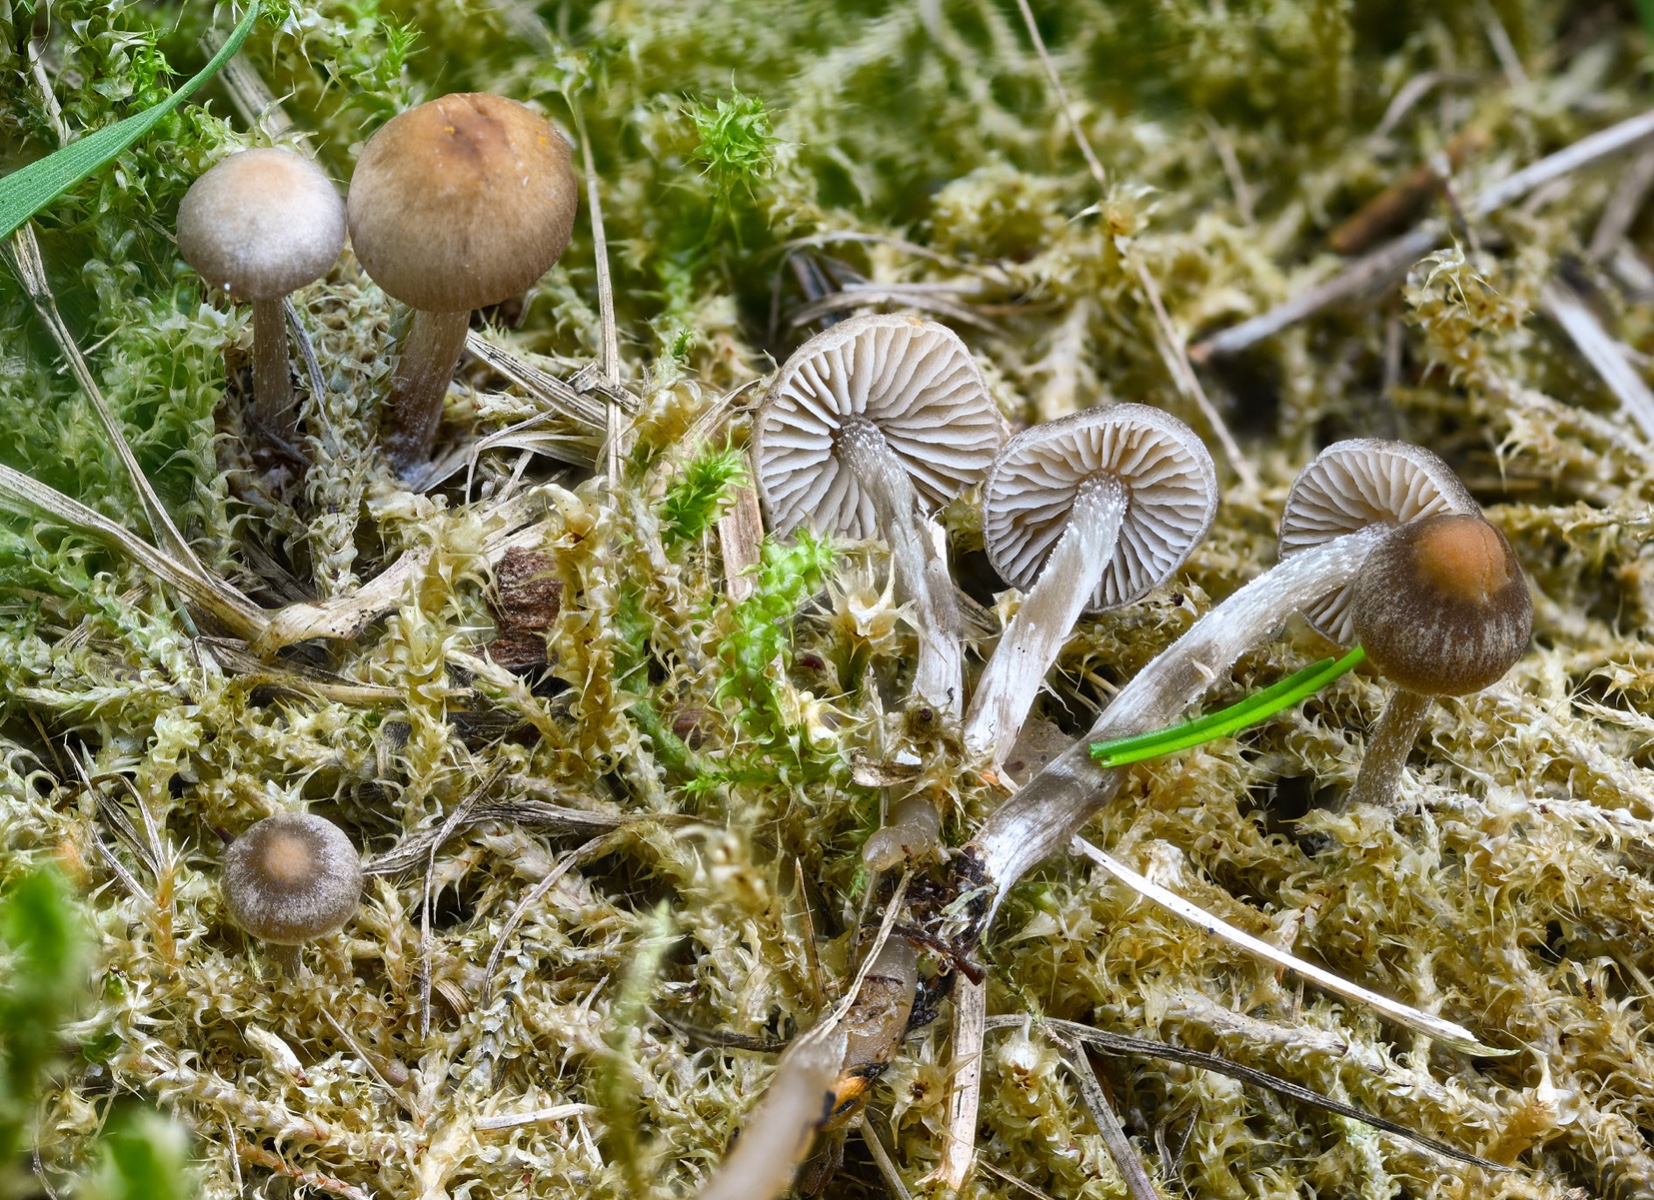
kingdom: Fungi
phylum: Basidiomycota
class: Agaricomycetes
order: Agaricales
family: Lyophyllaceae
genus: Sagaranella
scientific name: Sagaranella tylicolor
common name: kvælstof-gråblad
